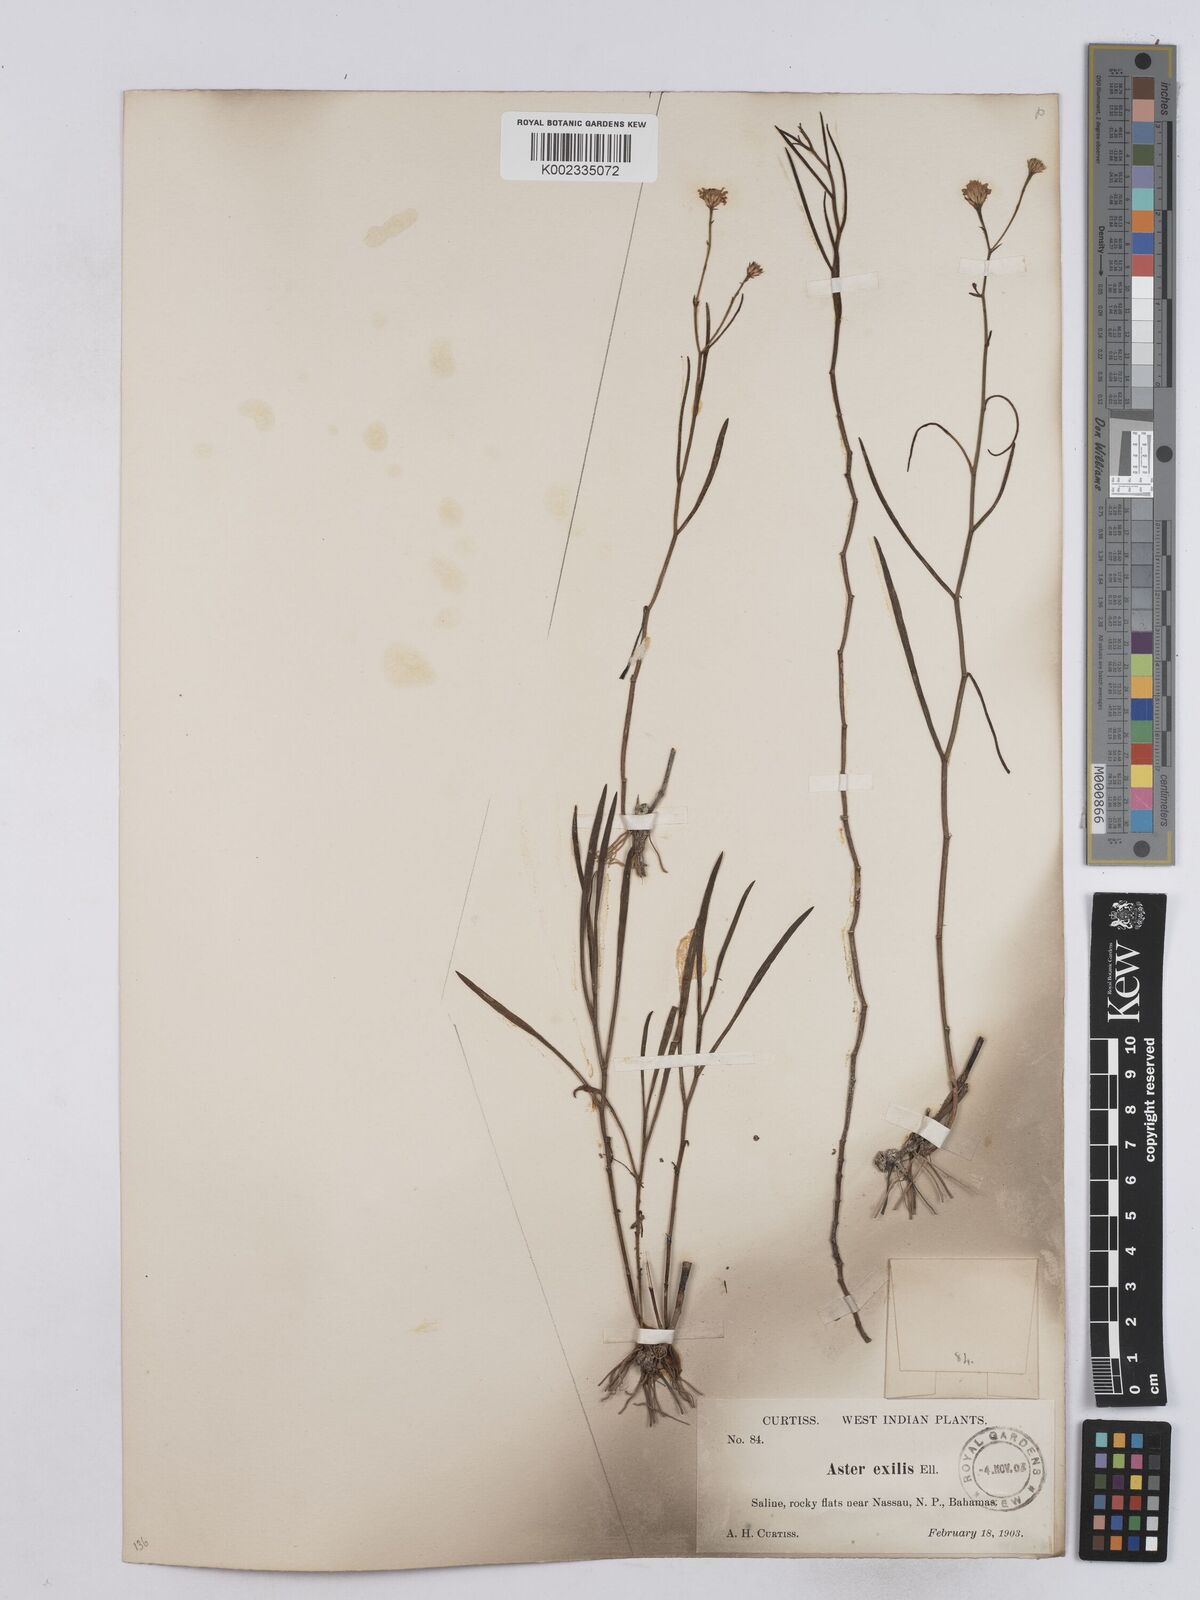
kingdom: Plantae
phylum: Tracheophyta
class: Magnoliopsida
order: Asterales
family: Asteraceae
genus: Symphyotrichum
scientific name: Symphyotrichum tenuifolium
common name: Perennial salt-marsh aster
